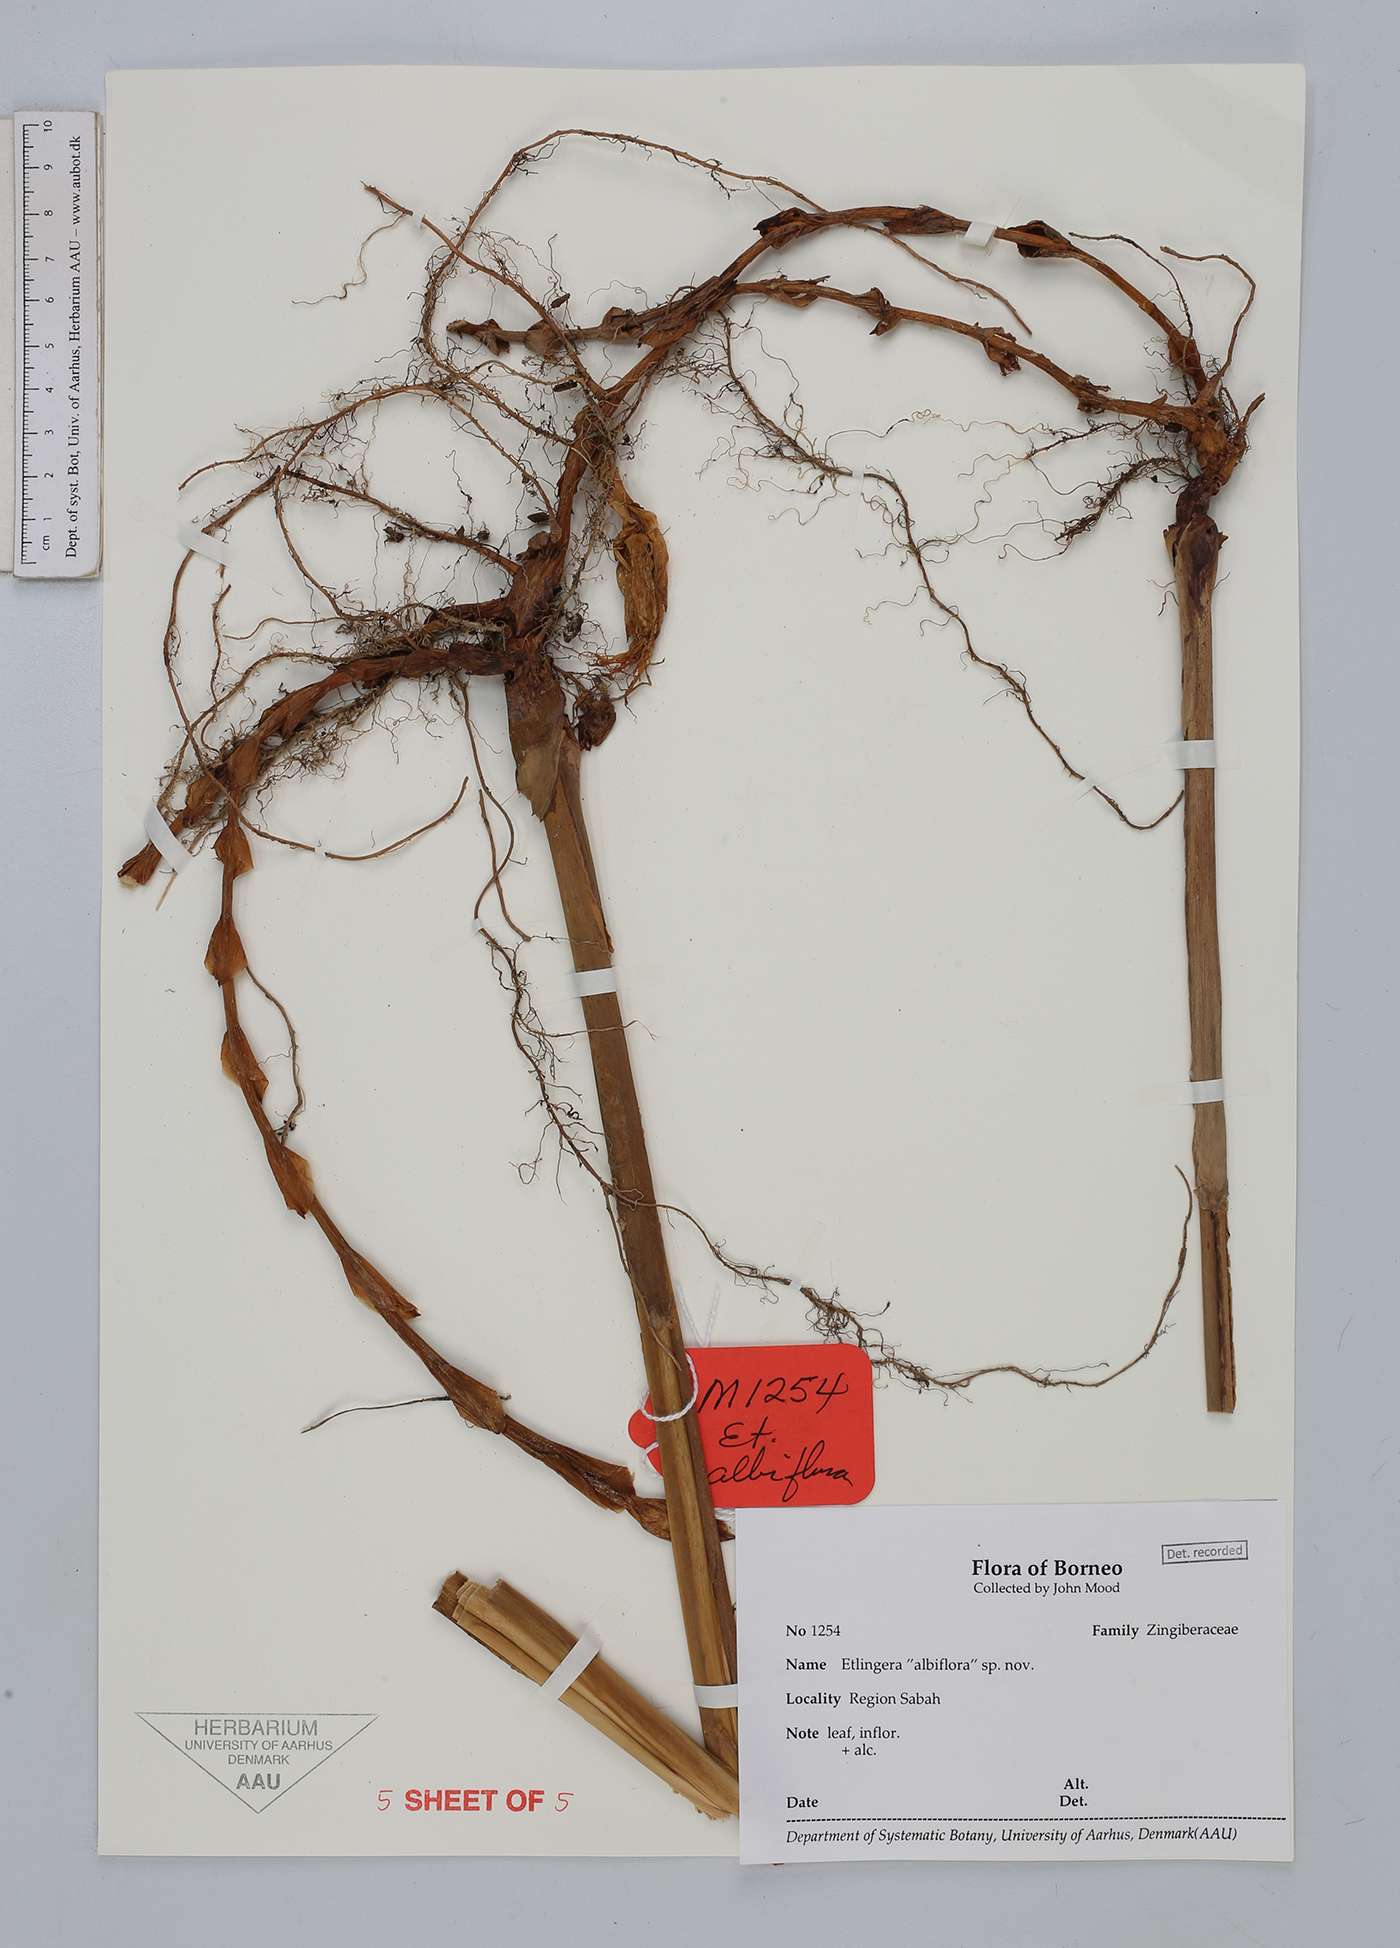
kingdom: Plantae
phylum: Tracheophyta
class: Liliopsida
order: Zingiberales
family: Zingiberaceae
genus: Etlingera
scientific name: Etlingera albolutea
